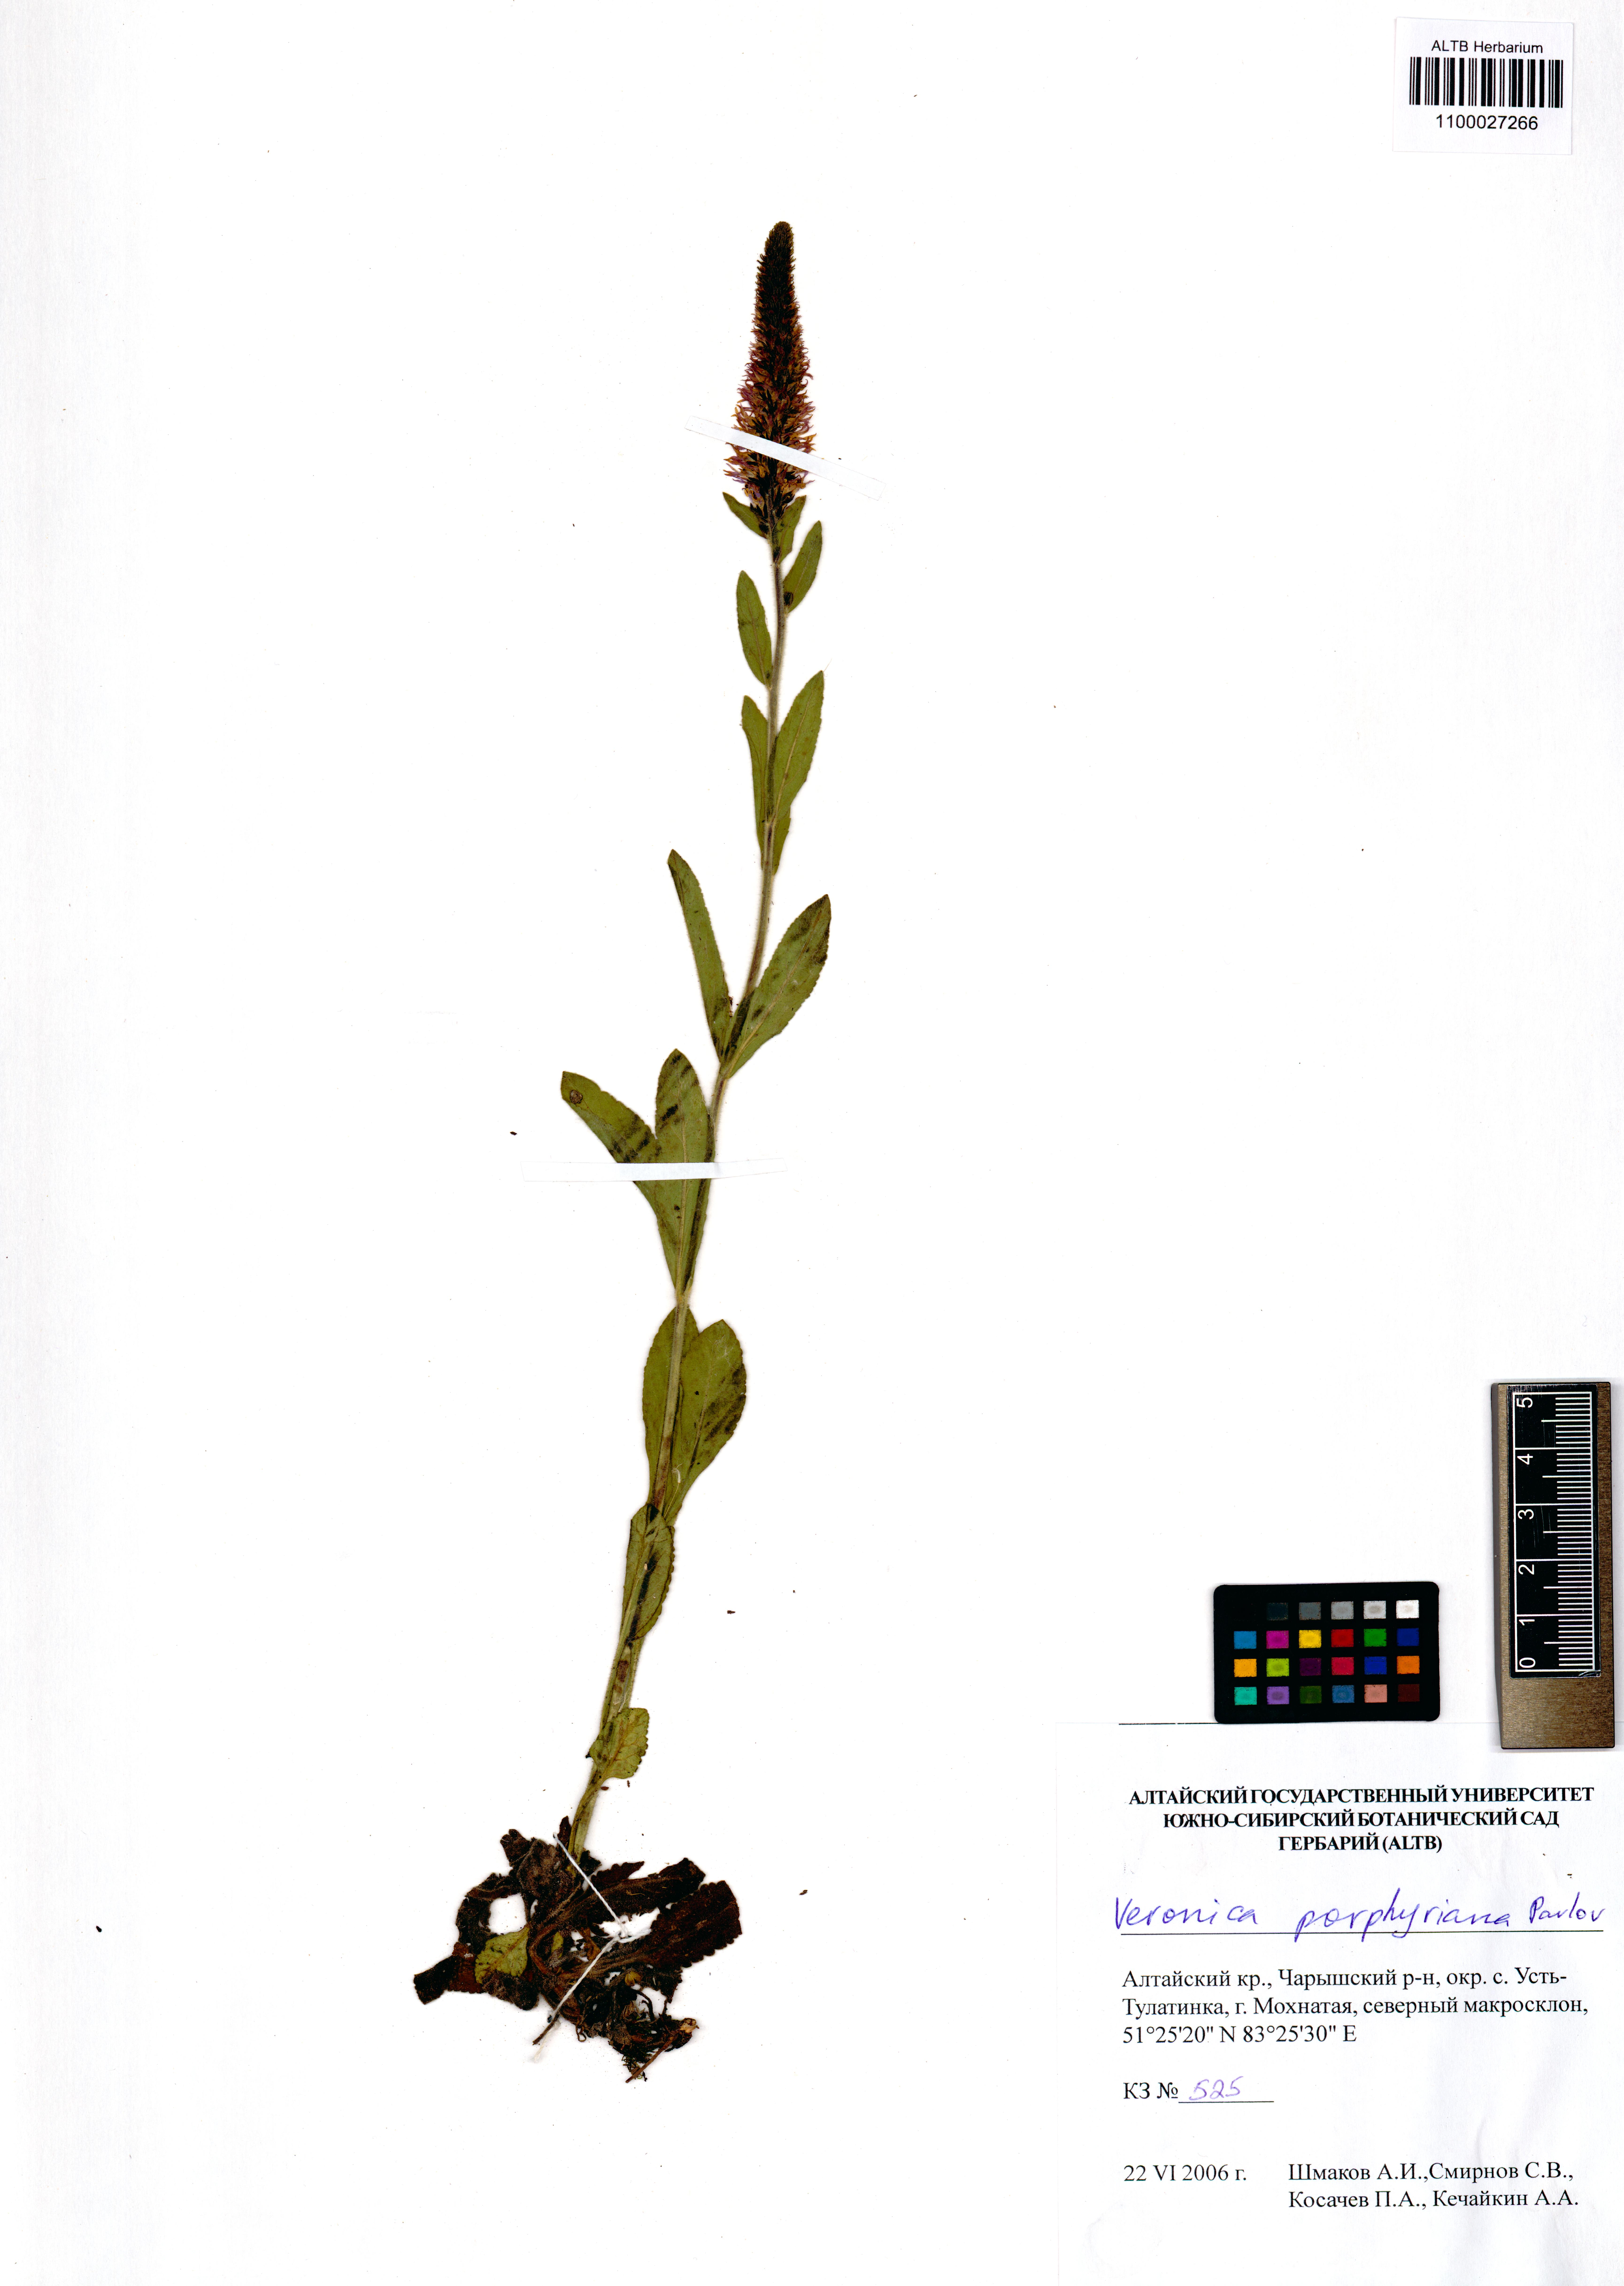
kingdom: Plantae
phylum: Tracheophyta
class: Magnoliopsida
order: Lamiales
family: Plantaginaceae
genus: Veronica
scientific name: Veronica porphyriana
